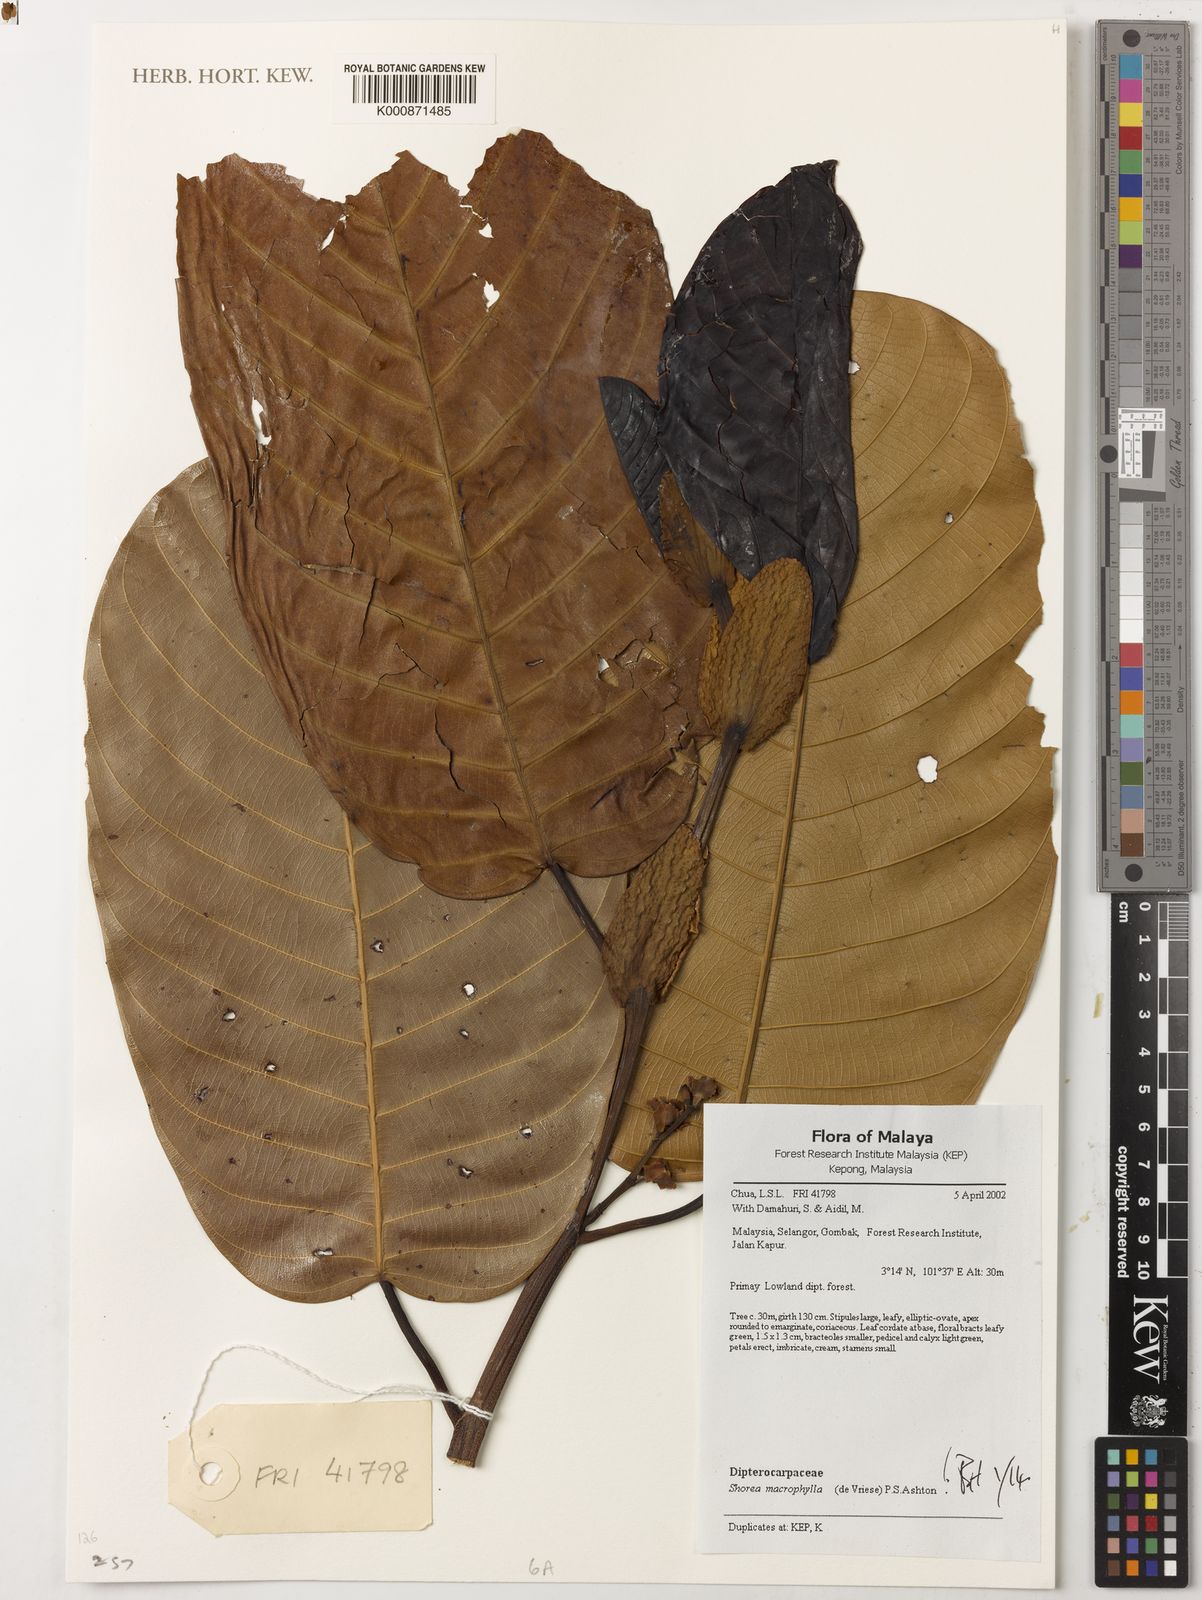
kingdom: Plantae
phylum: Tracheophyta
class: Magnoliopsida
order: Malvales
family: Dipterocarpaceae
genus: Shorea
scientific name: Shorea macrophylla
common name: Light red meranti
